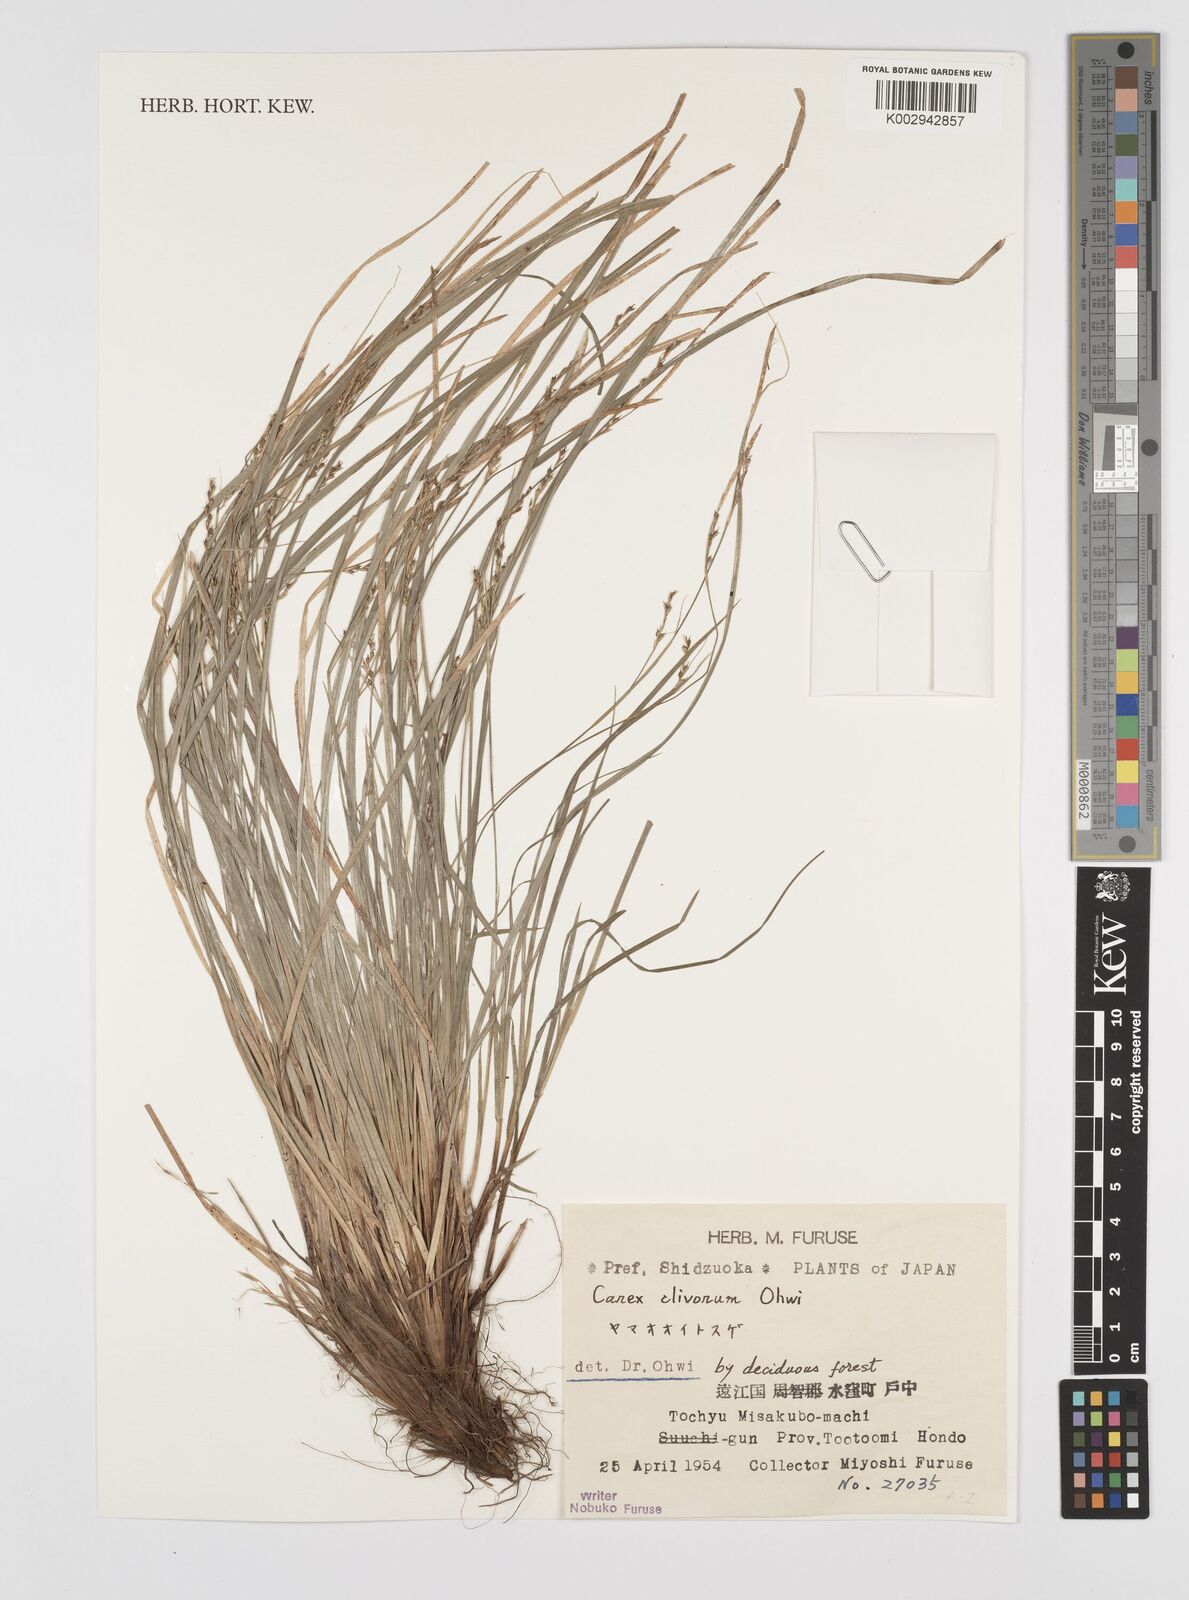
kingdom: Plantae
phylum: Tracheophyta
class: Liliopsida
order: Poales
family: Cyperaceae
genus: Carex
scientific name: Carex clivorum
